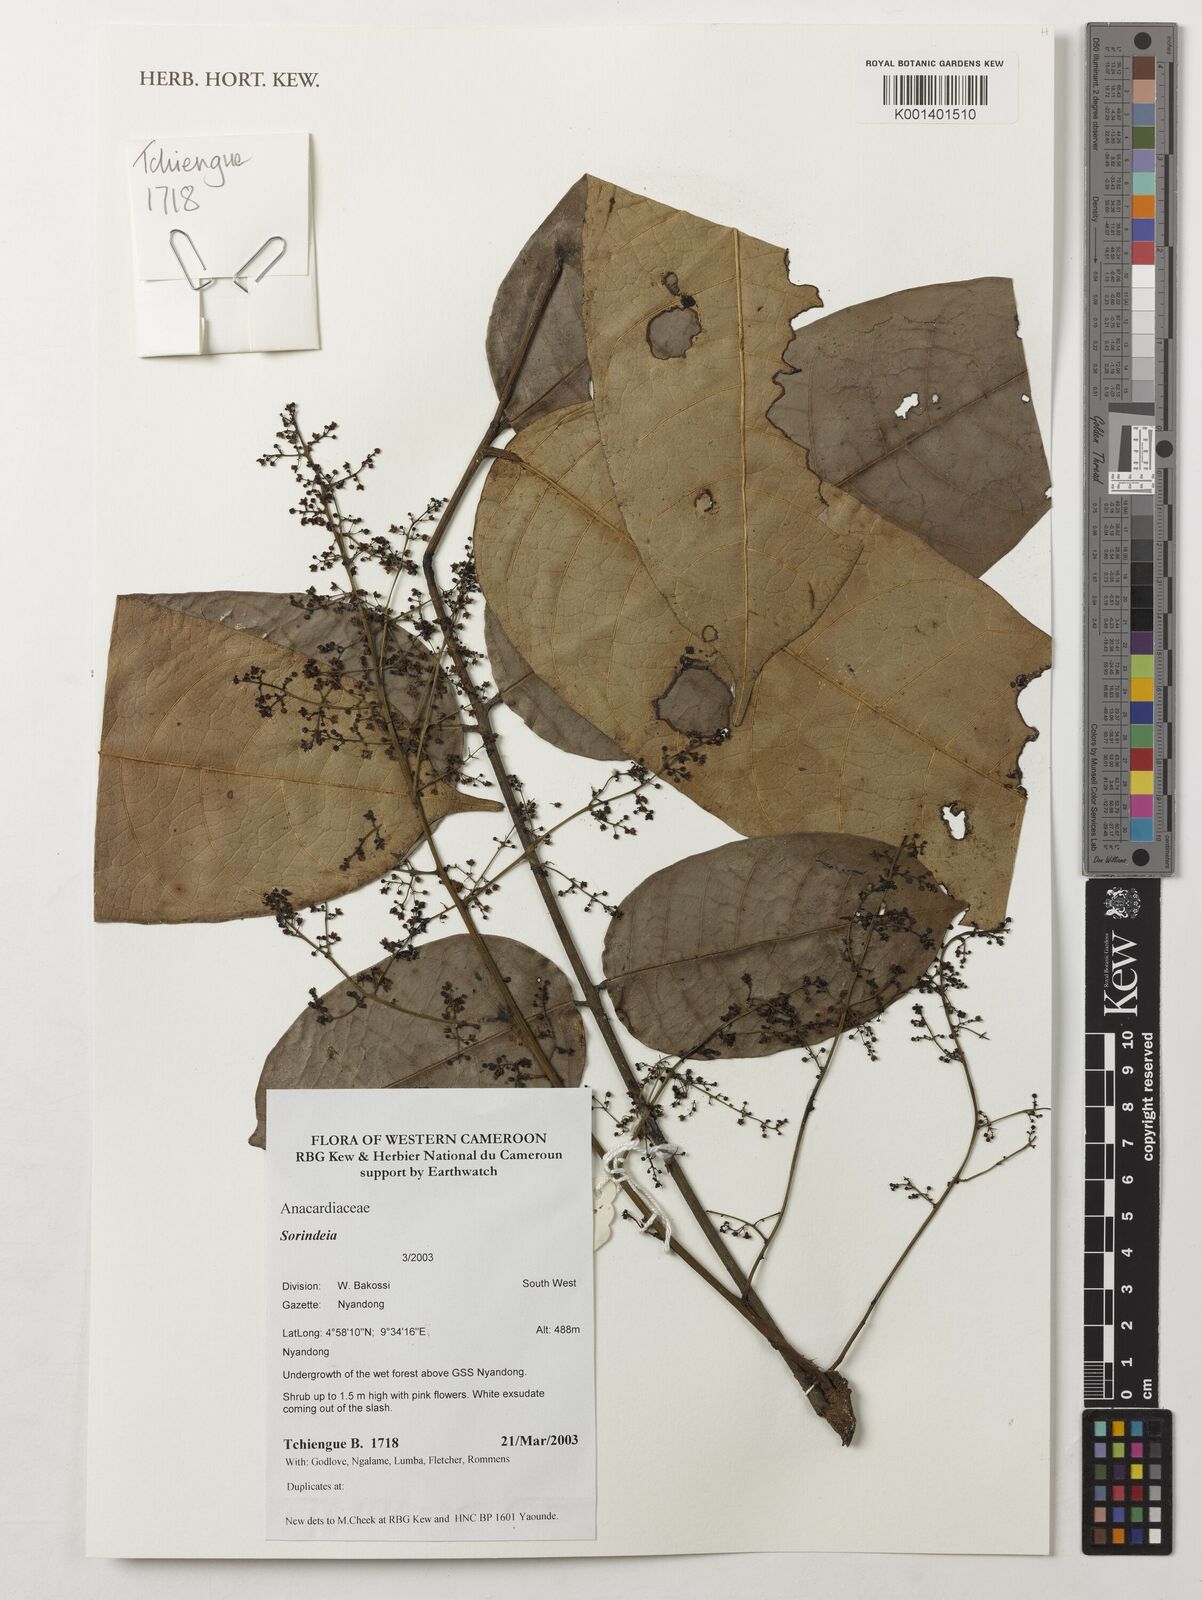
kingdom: Plantae
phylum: Tracheophyta
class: Magnoliopsida
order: Sapindales
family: Anacardiaceae
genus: Sorindeia
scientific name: Sorindeia
